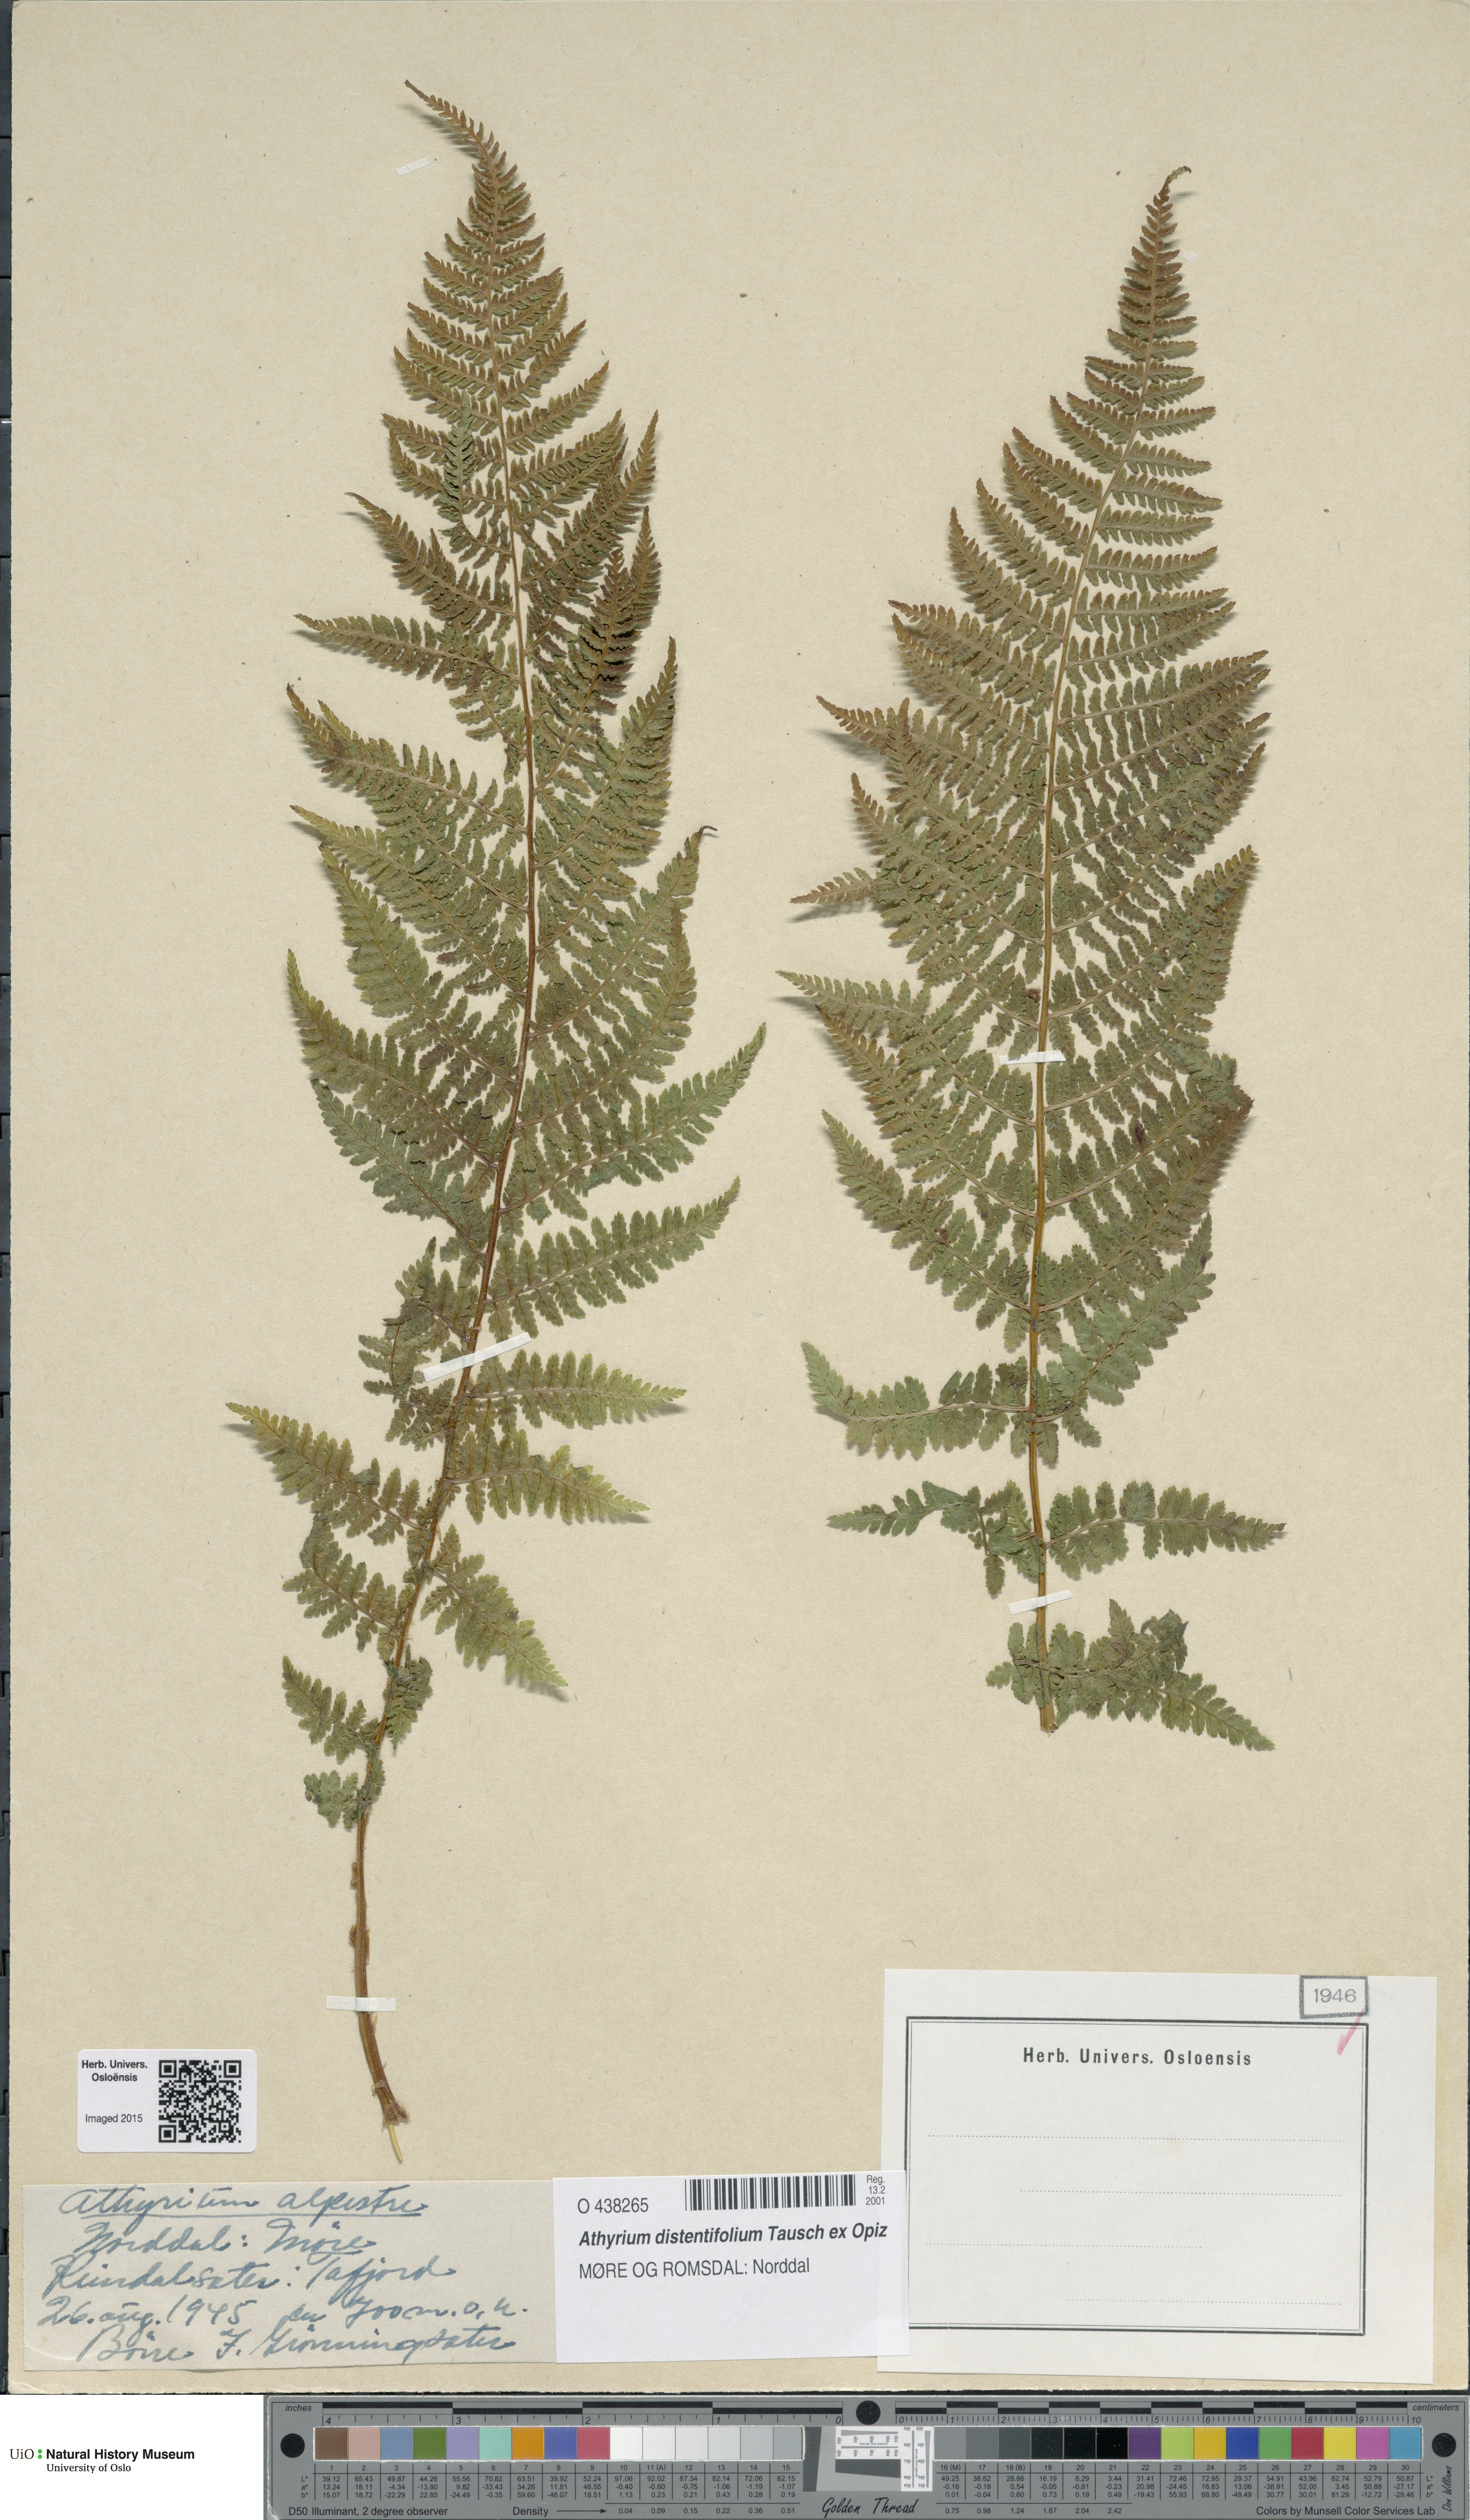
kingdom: Plantae
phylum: Tracheophyta
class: Polypodiopsida
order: Polypodiales
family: Athyriaceae
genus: Pseudathyrium
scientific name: Pseudathyrium alpestre
